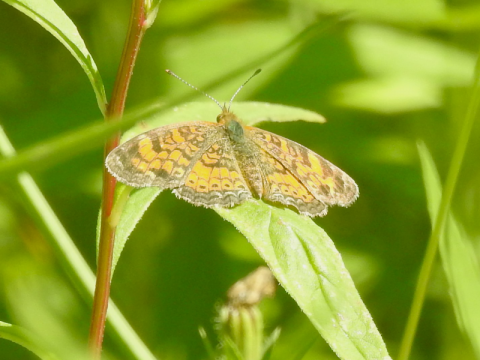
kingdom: Animalia
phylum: Arthropoda
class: Insecta
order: Lepidoptera
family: Nymphalidae
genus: Phyciodes
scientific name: Phyciodes tharos
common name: Northern Crescent
